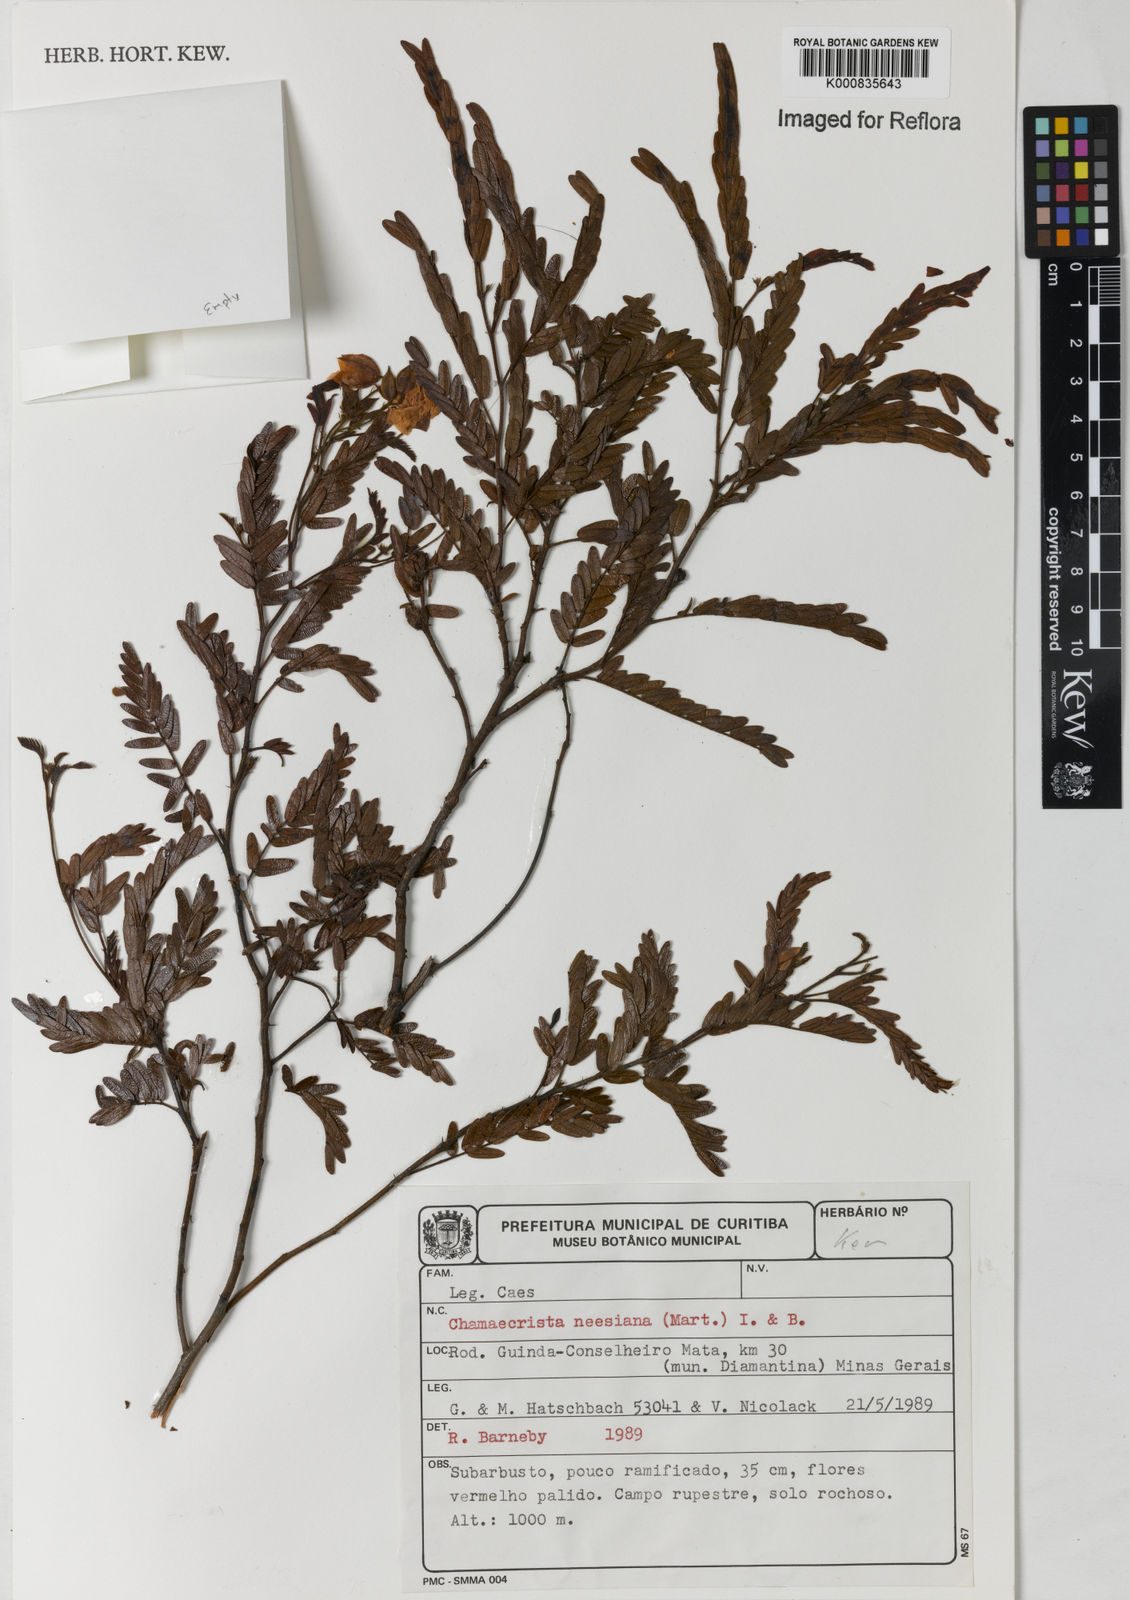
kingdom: Plantae
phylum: Tracheophyta
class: Magnoliopsida
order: Fabales
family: Fabaceae
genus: Chamaecrista
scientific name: Chamaecrista neesiana
